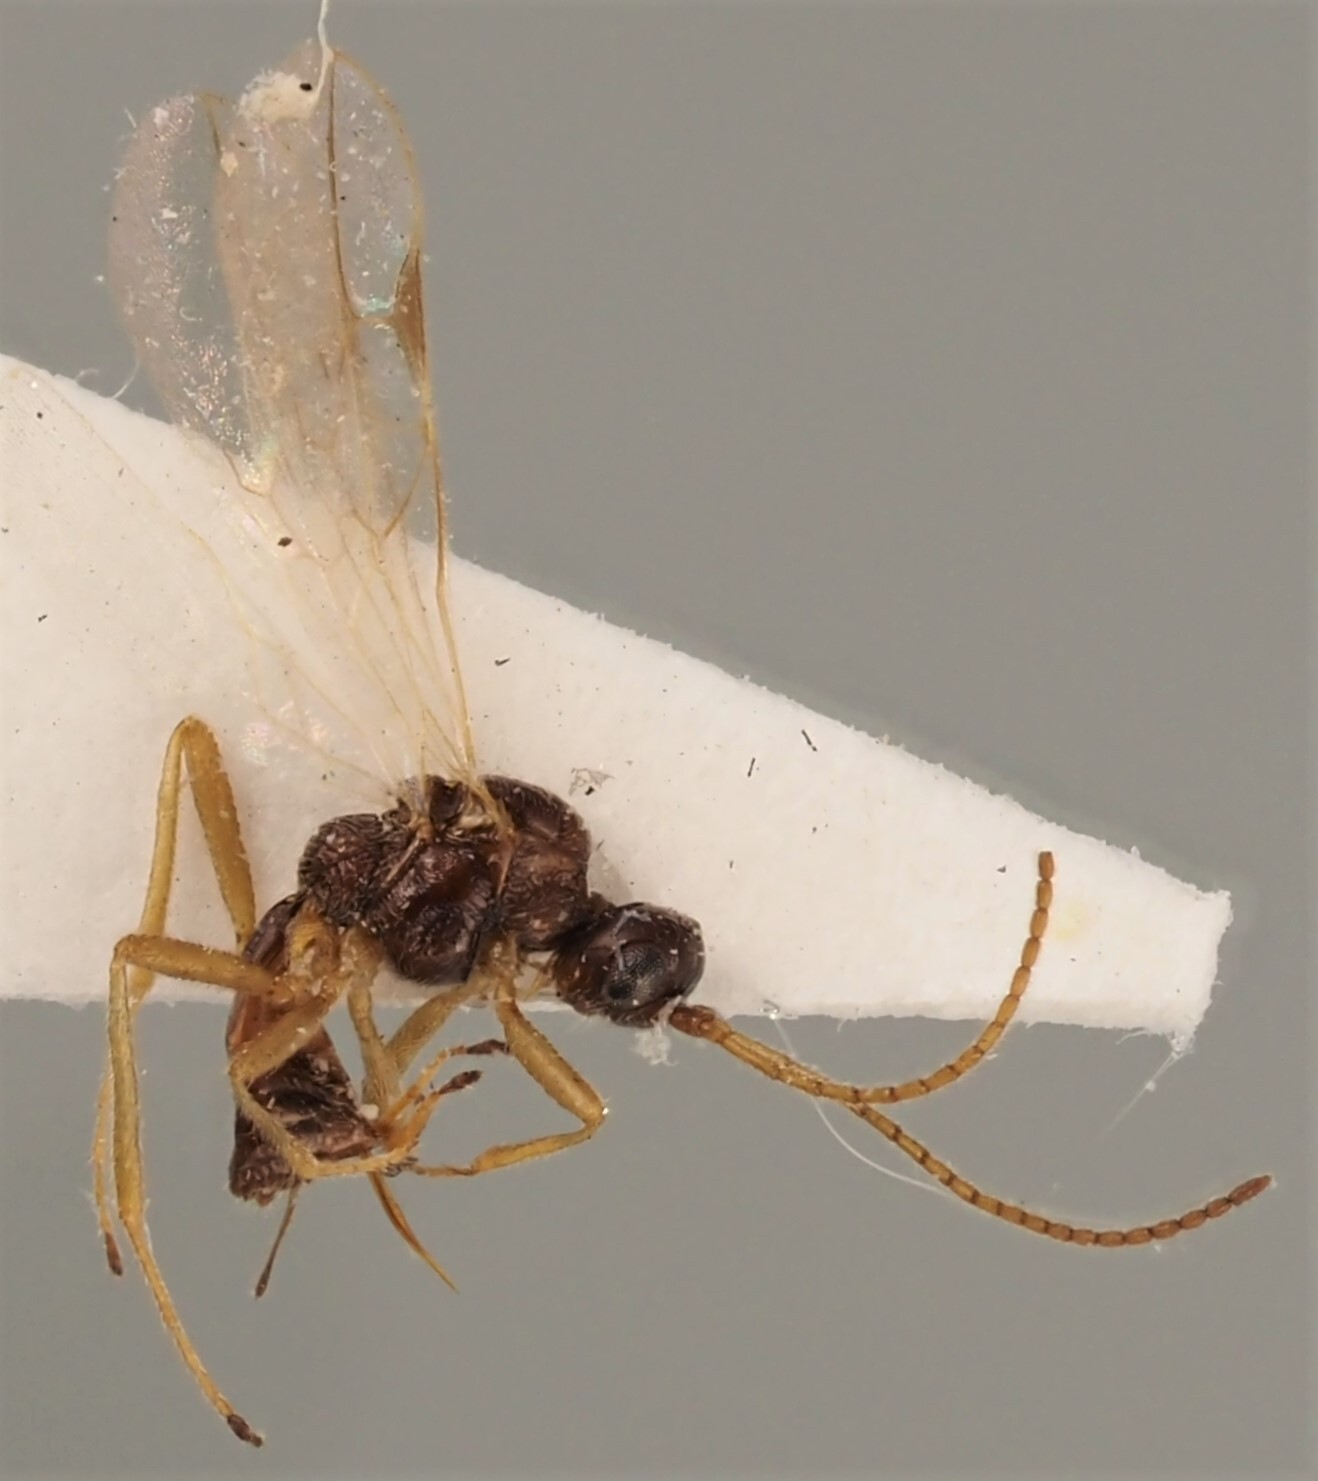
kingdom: Animalia
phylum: Arthropoda
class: Insecta
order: Hymenoptera
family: Braconidae
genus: Blacus
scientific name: Blacus ruficornis
